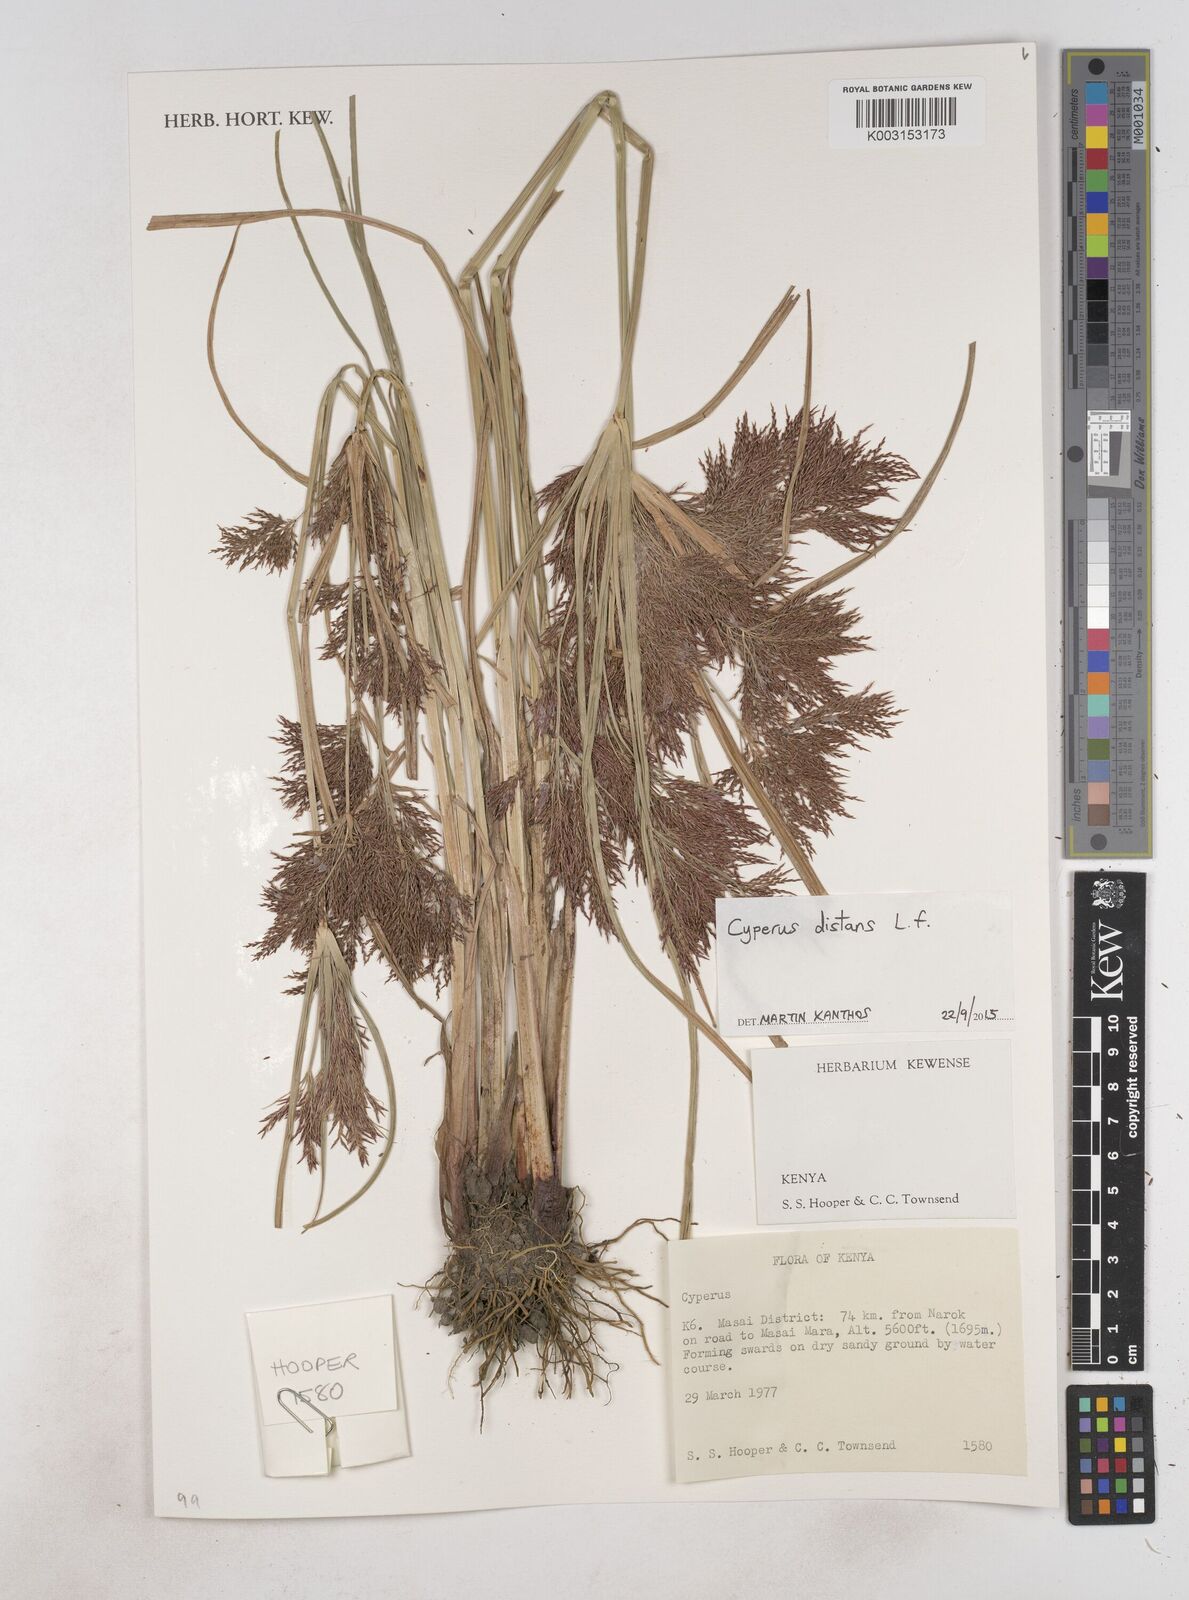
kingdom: Plantae
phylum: Tracheophyta
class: Liliopsida
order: Poales
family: Cyperaceae
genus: Cyperus
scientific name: Cyperus distans
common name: Slender cyperus
